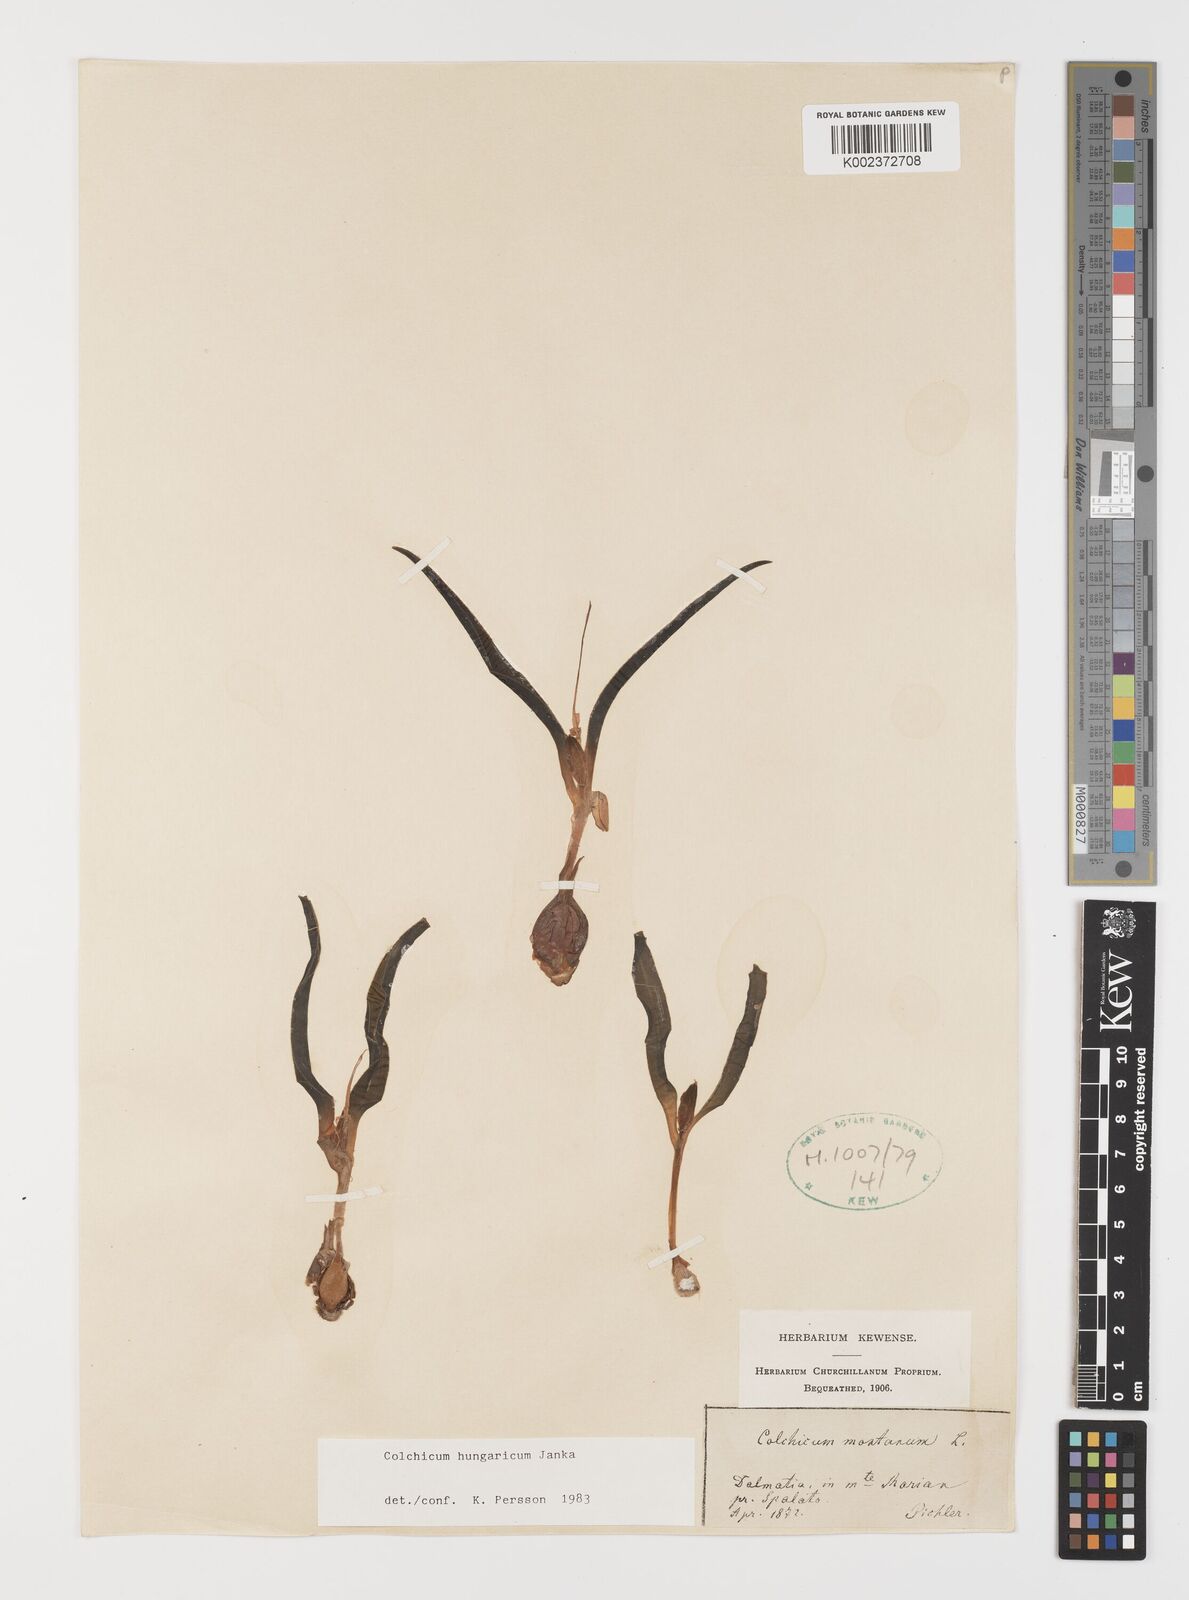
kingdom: Plantae
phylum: Tracheophyta
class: Liliopsida
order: Liliales
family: Colchicaceae
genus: Colchicum
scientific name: Colchicum hungaricum
